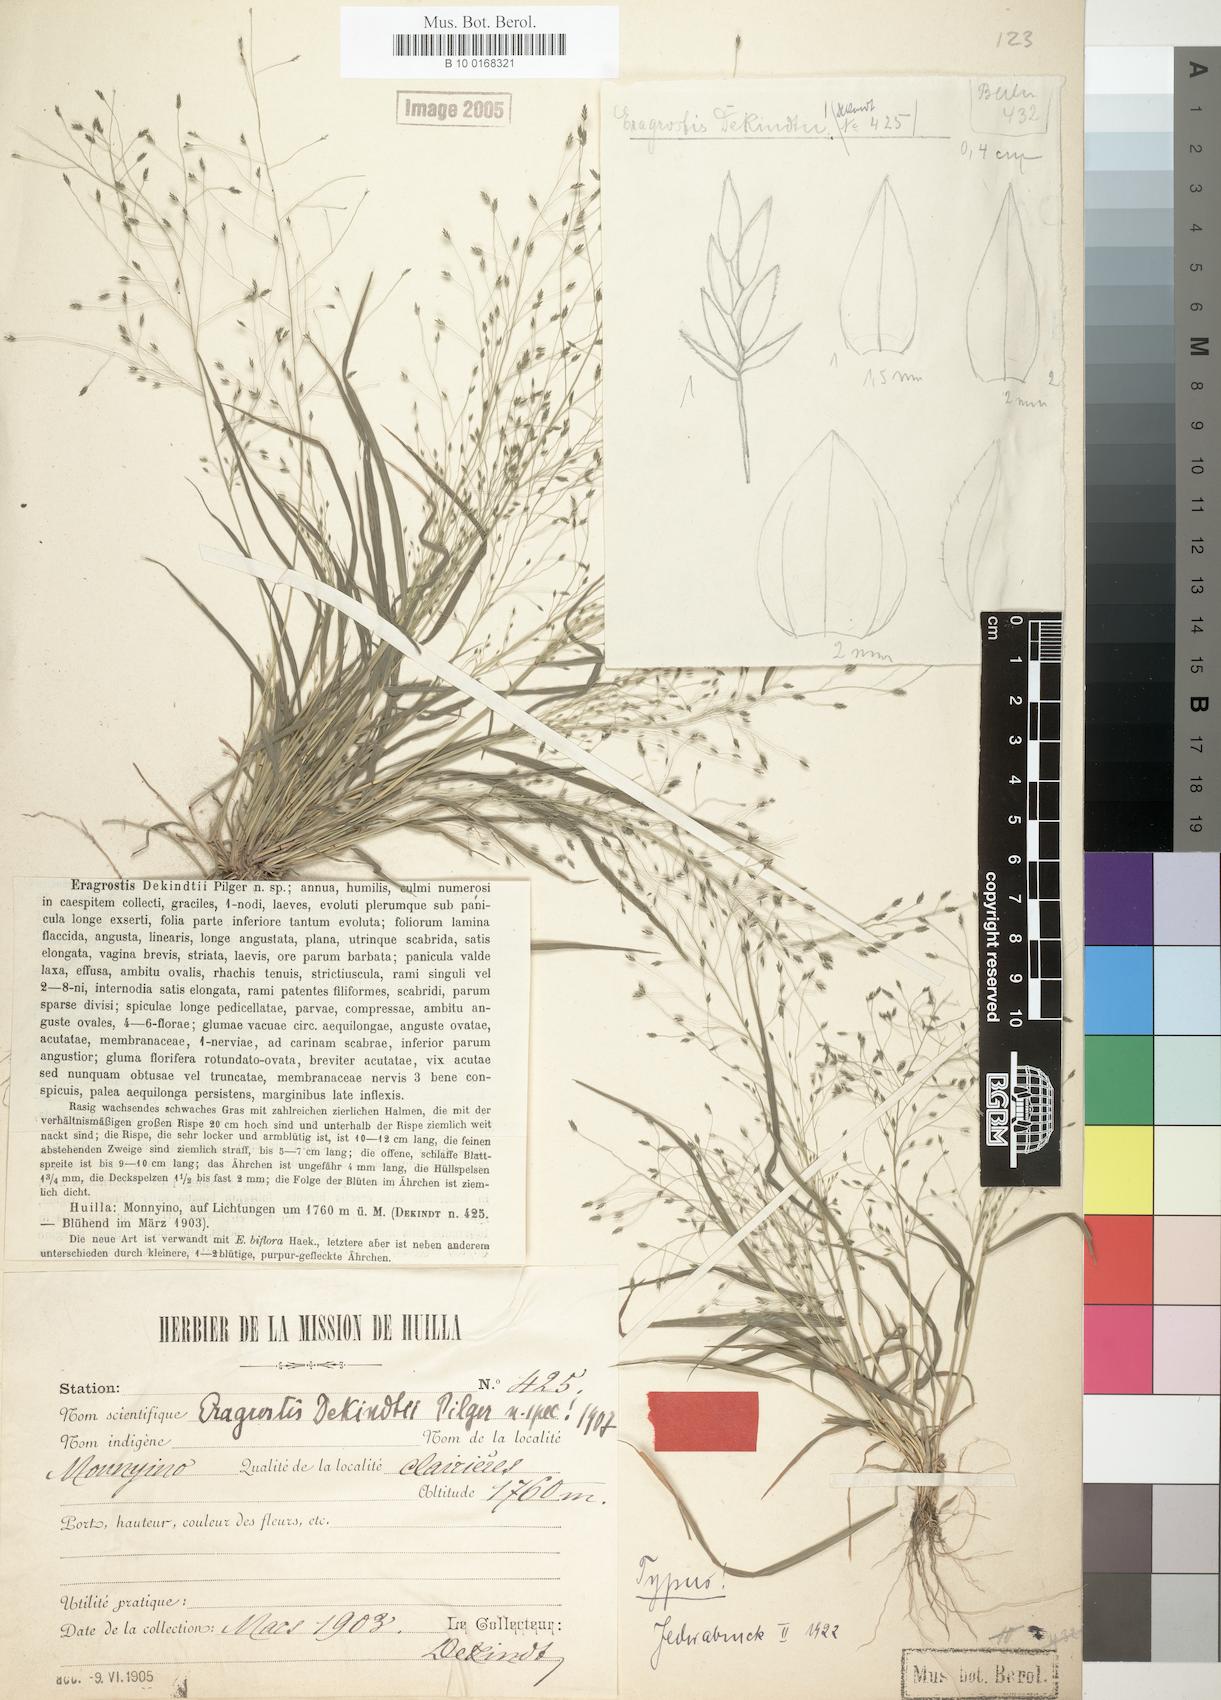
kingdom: Plantae
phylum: Tracheophyta
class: Liliopsida
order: Poales
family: Poaceae
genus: Eragrostis
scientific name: Eragrostis macilenta
